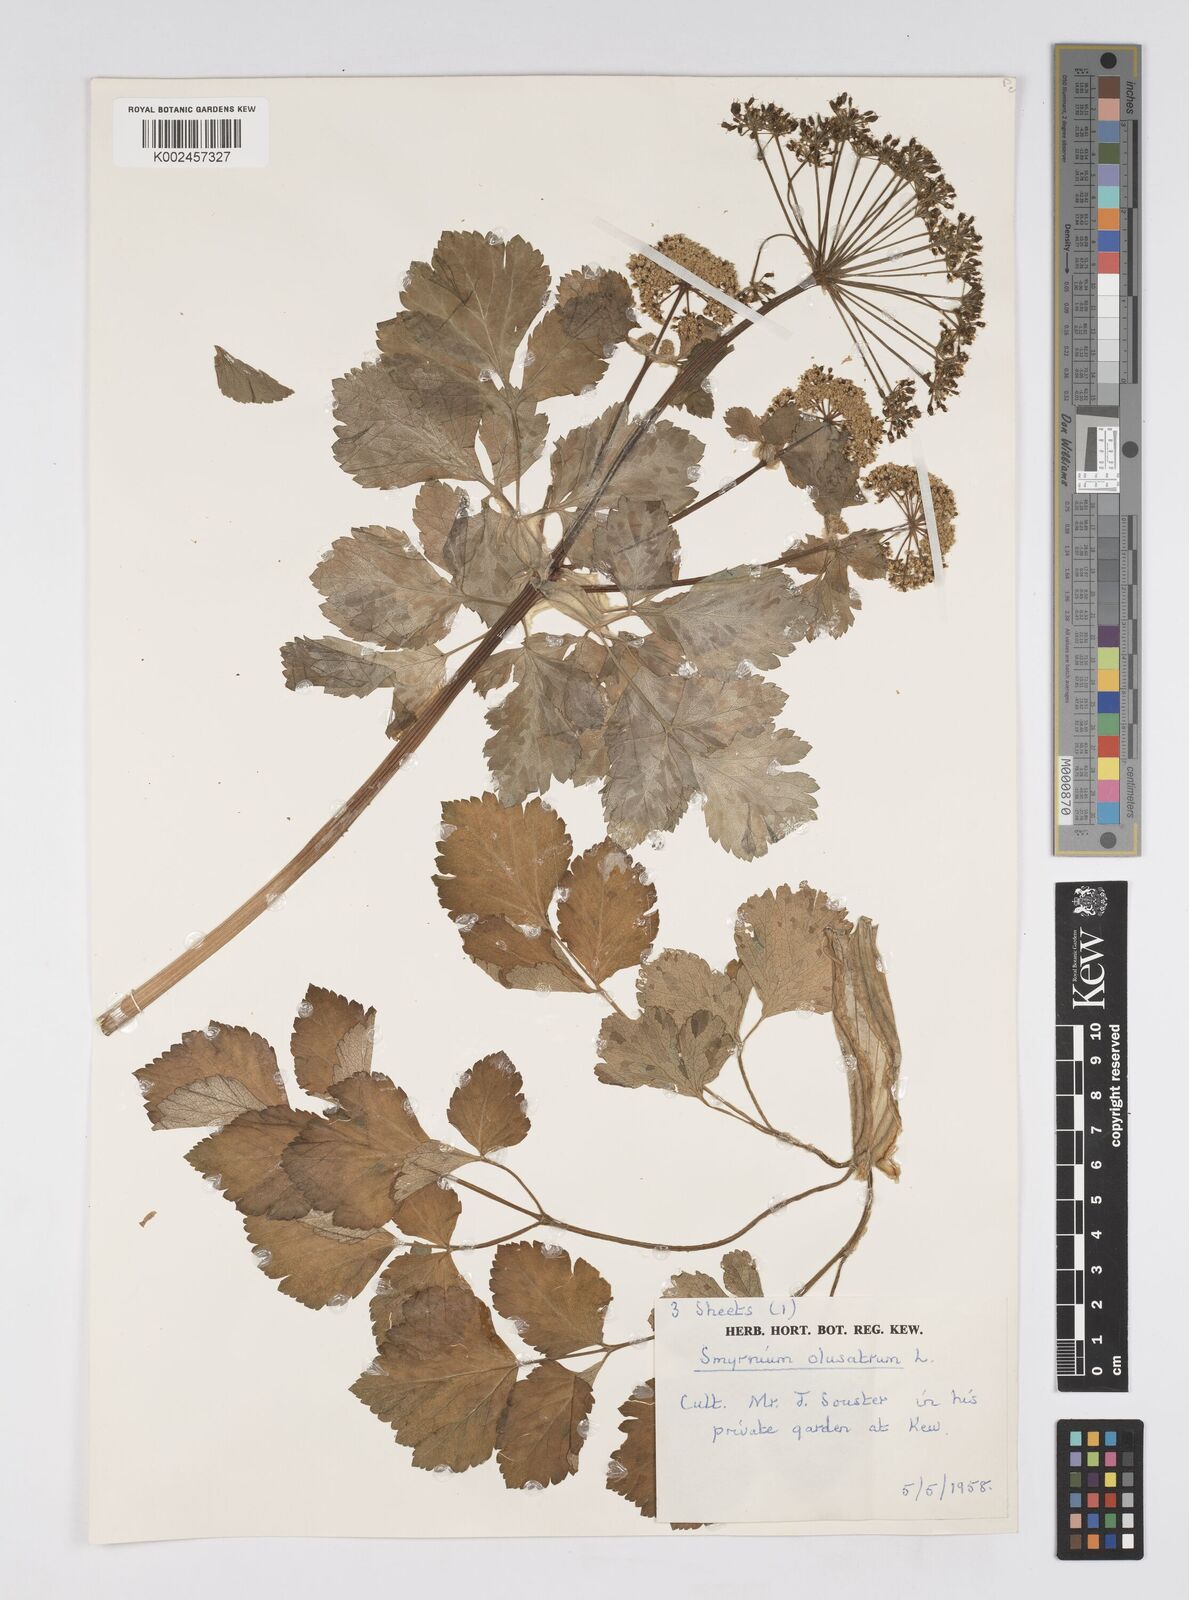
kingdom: Plantae
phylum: Tracheophyta
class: Magnoliopsida
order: Apiales
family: Apiaceae
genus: Smyrnium
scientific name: Smyrnium olusatrum
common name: Alexanders
